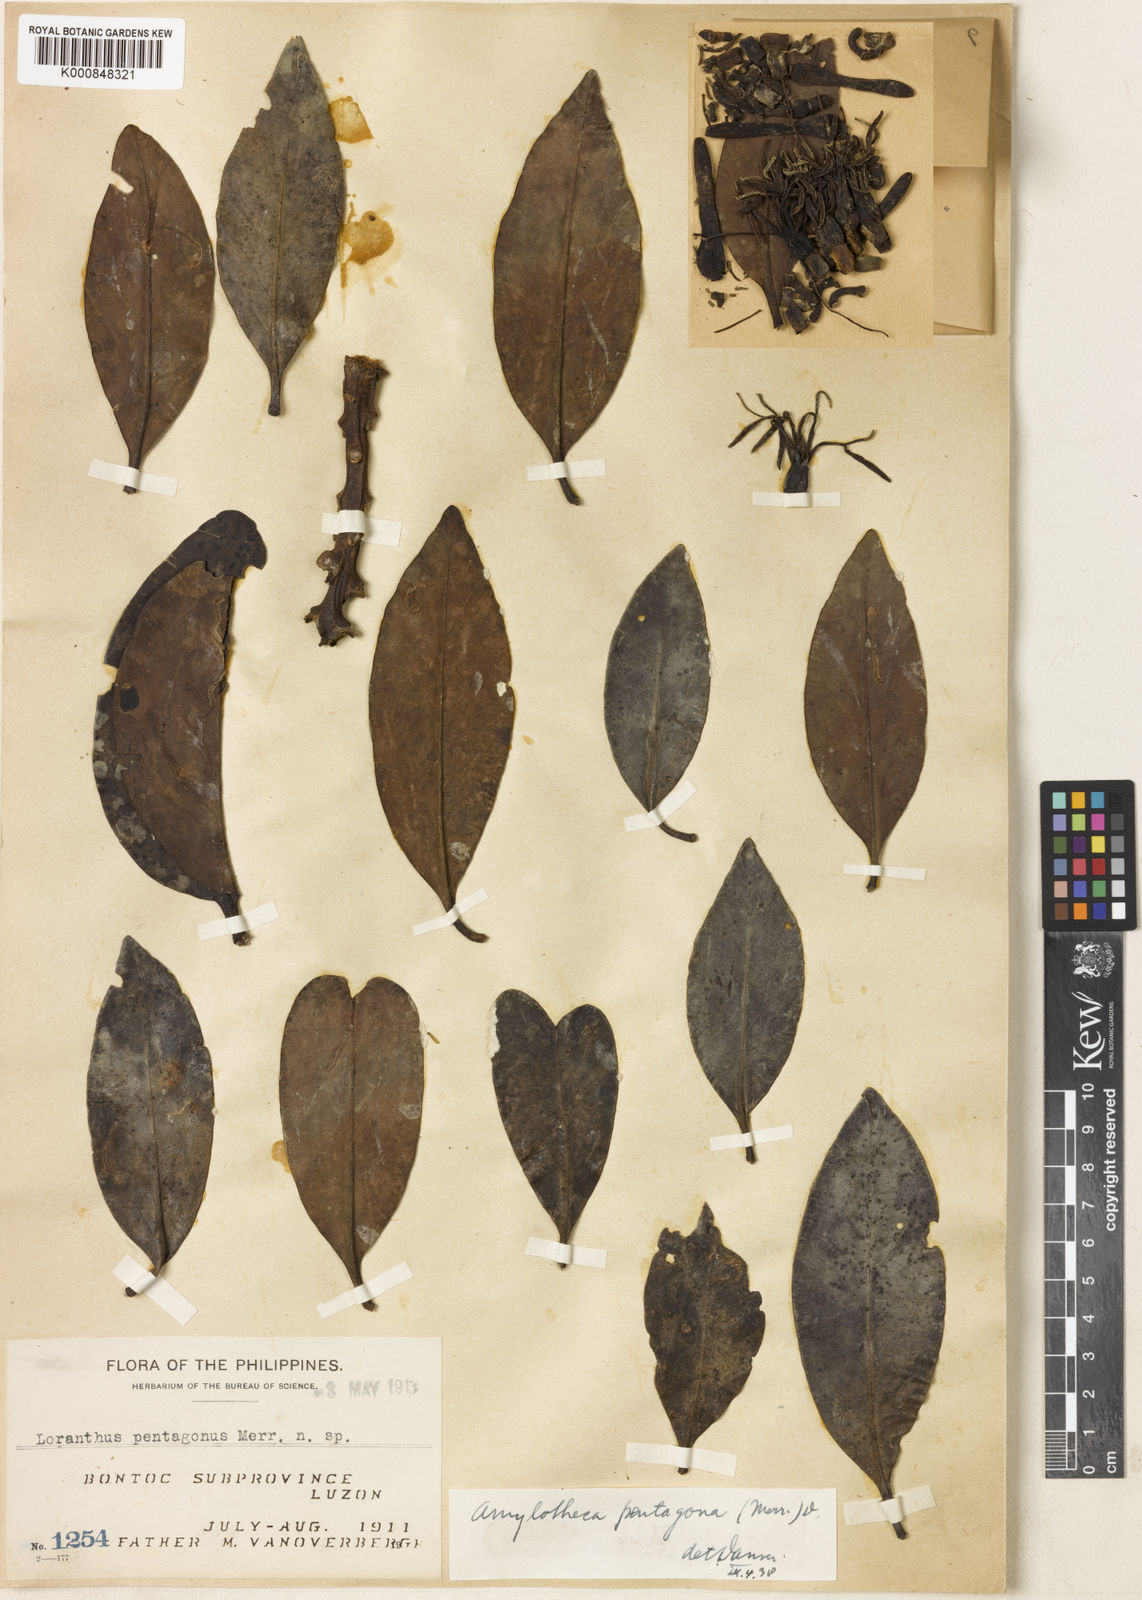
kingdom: Plantae
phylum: Tracheophyta
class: Magnoliopsida
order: Santalales
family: Loranthaceae
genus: Decaisnina
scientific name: Decaisnina viridis
